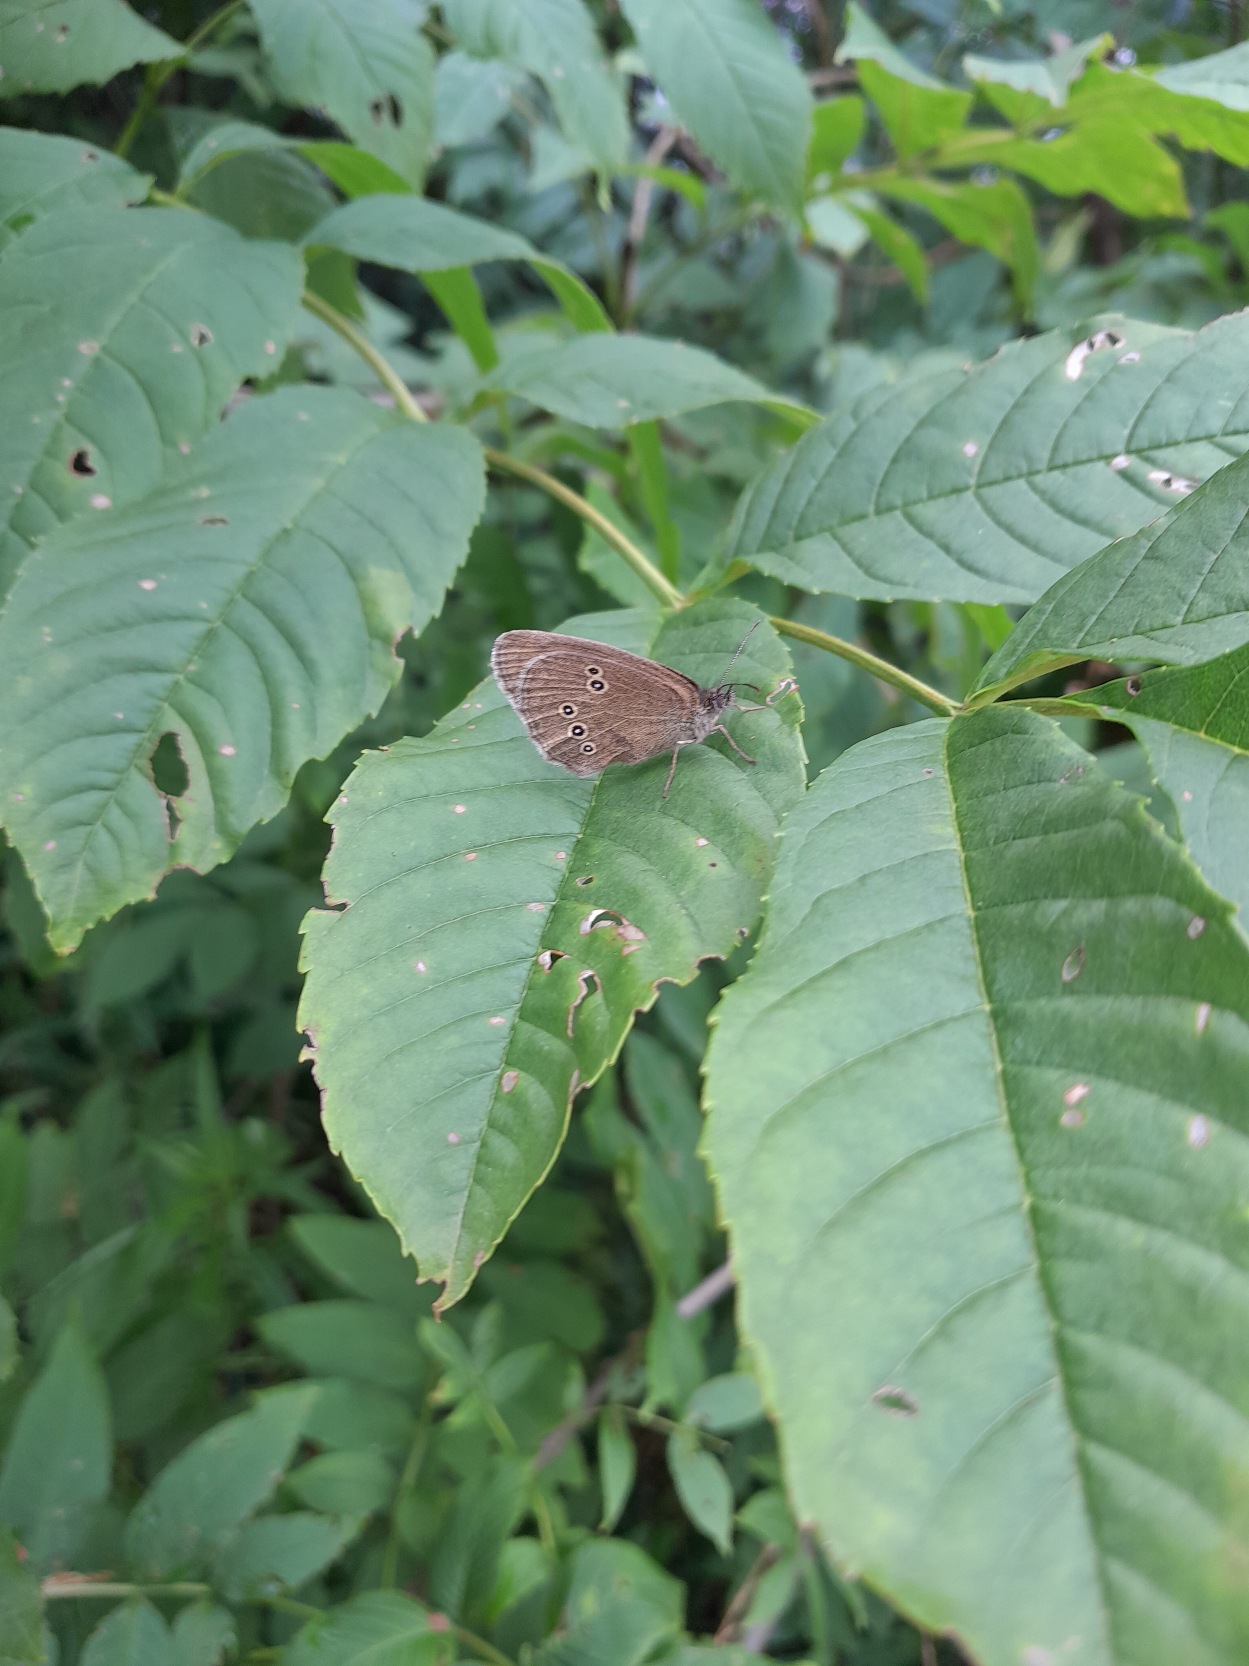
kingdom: Animalia
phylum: Arthropoda
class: Insecta
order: Lepidoptera
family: Nymphalidae
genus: Aphantopus
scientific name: Aphantopus hyperantus
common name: Engrandøje
